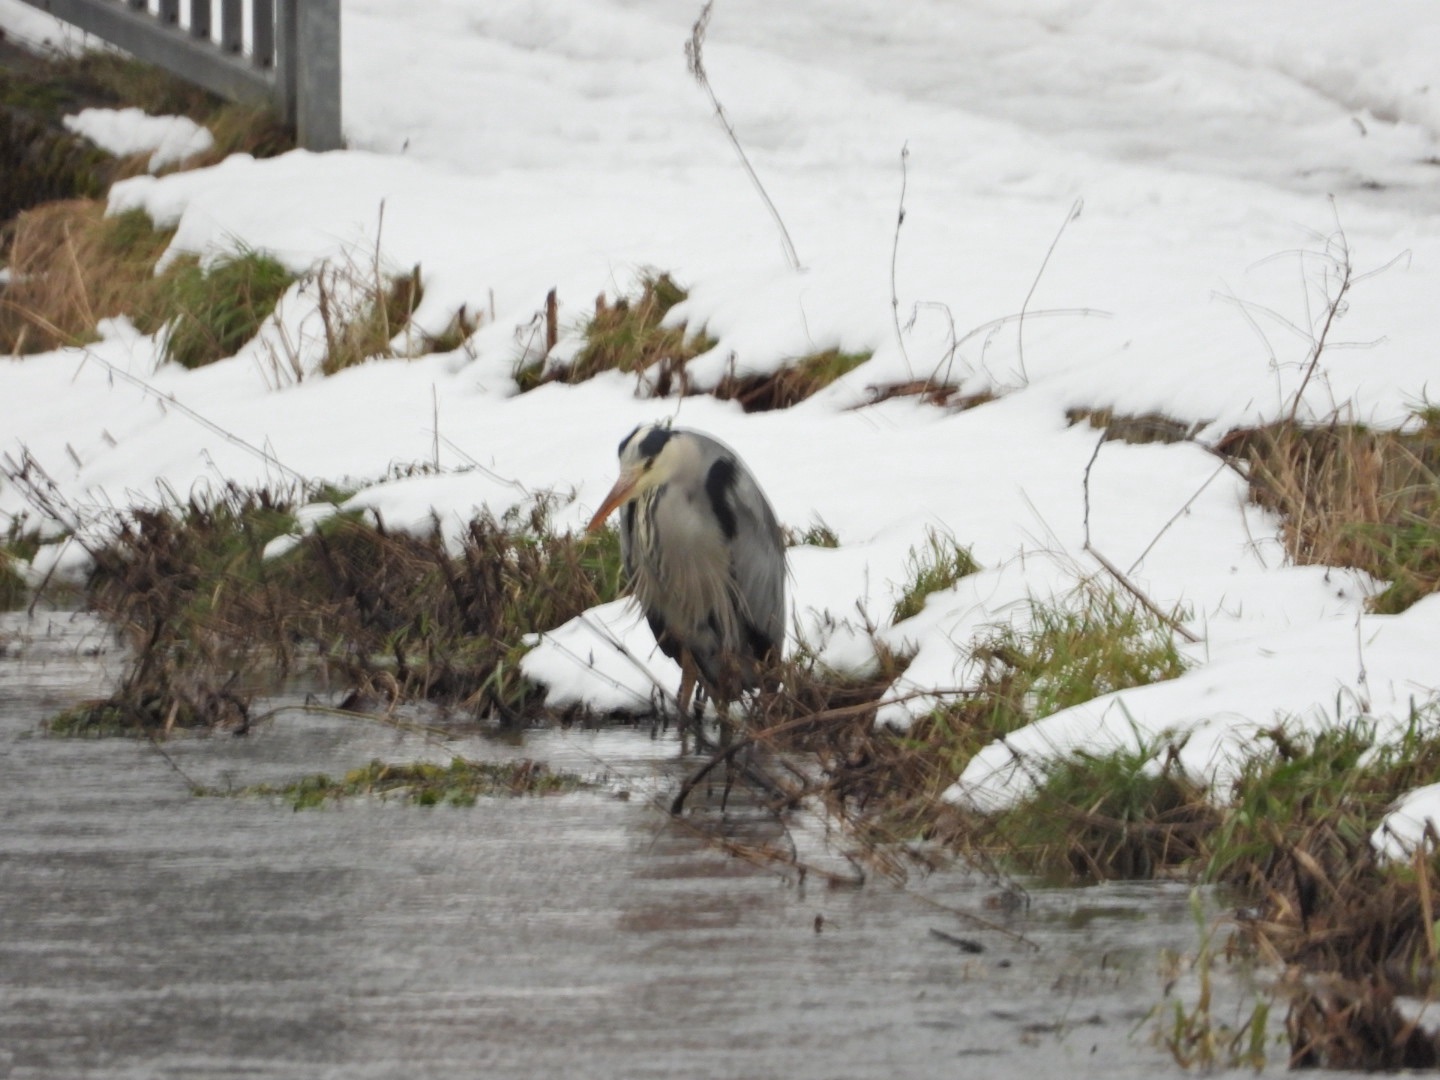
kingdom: Animalia
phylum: Chordata
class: Aves
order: Pelecaniformes
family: Ardeidae
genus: Ardea
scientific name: Ardea cinerea
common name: Fiskehejre
